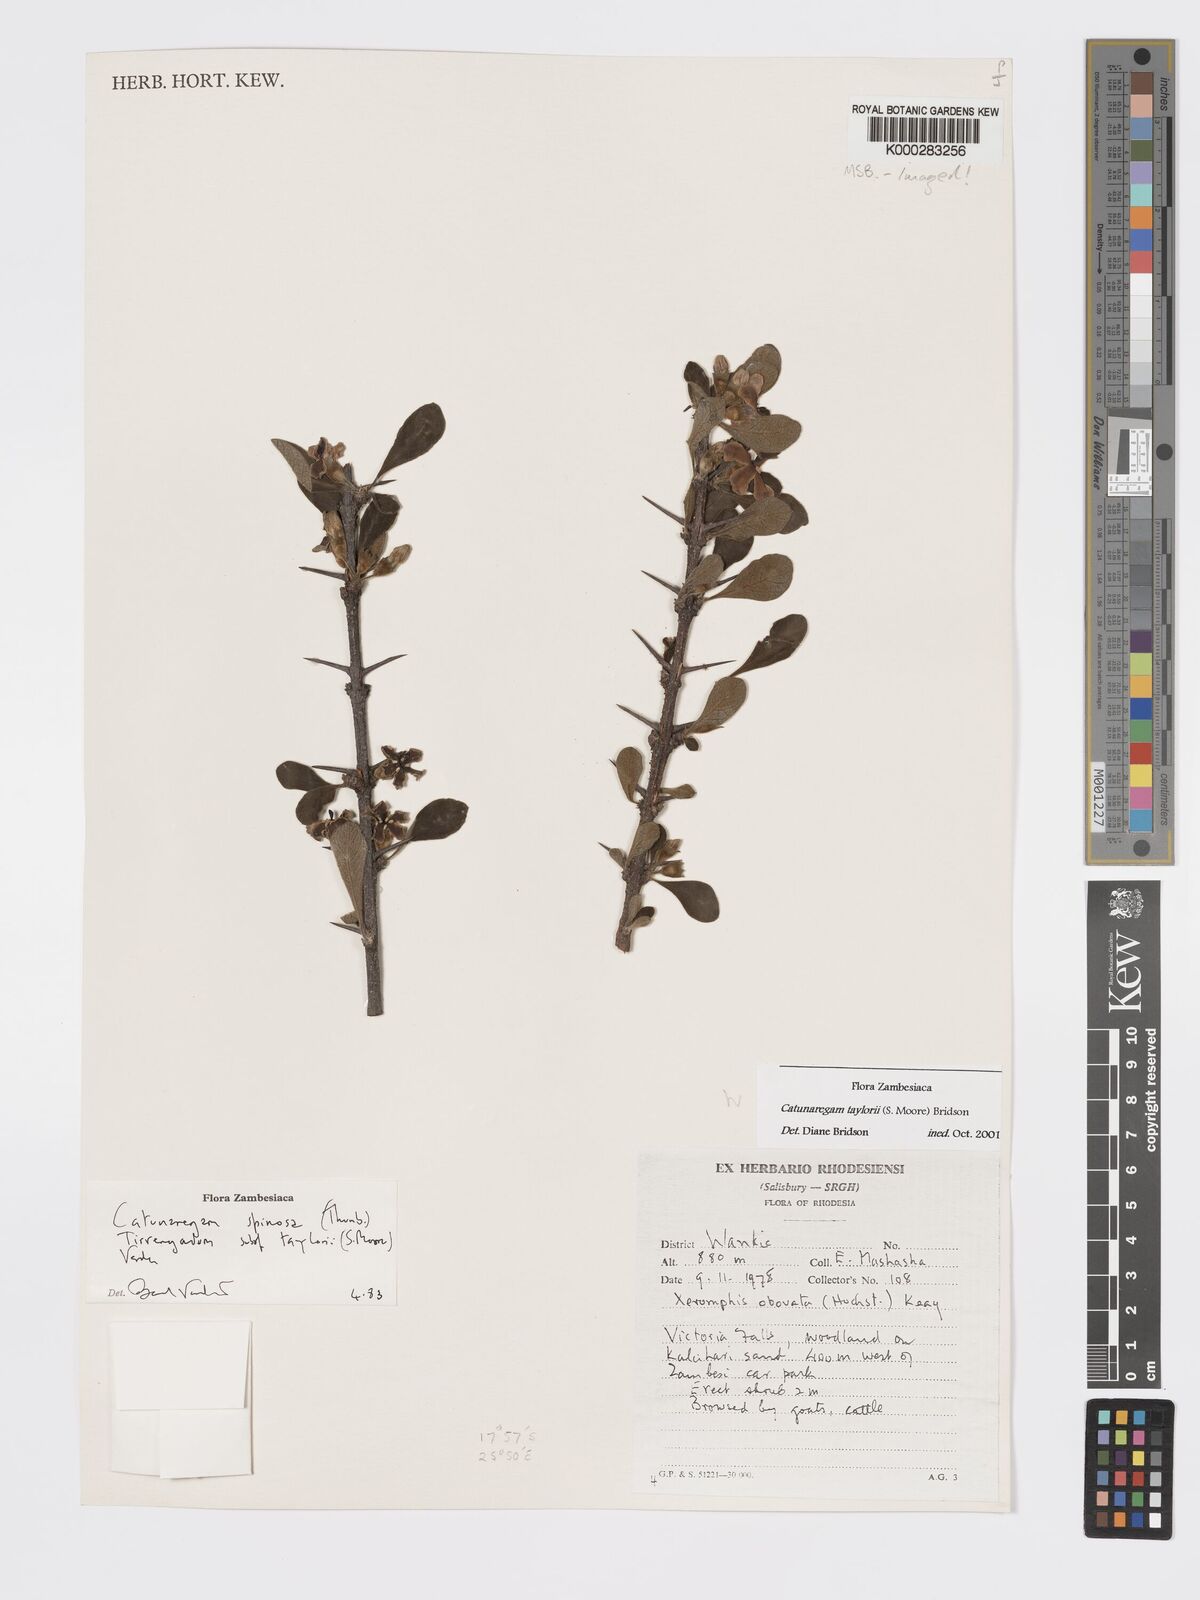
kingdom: Plantae
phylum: Tracheophyta
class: Magnoliopsida
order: Gentianales
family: Rubiaceae
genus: Catunaregam
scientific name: Catunaregam taylorii
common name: Miombo bone-apple
